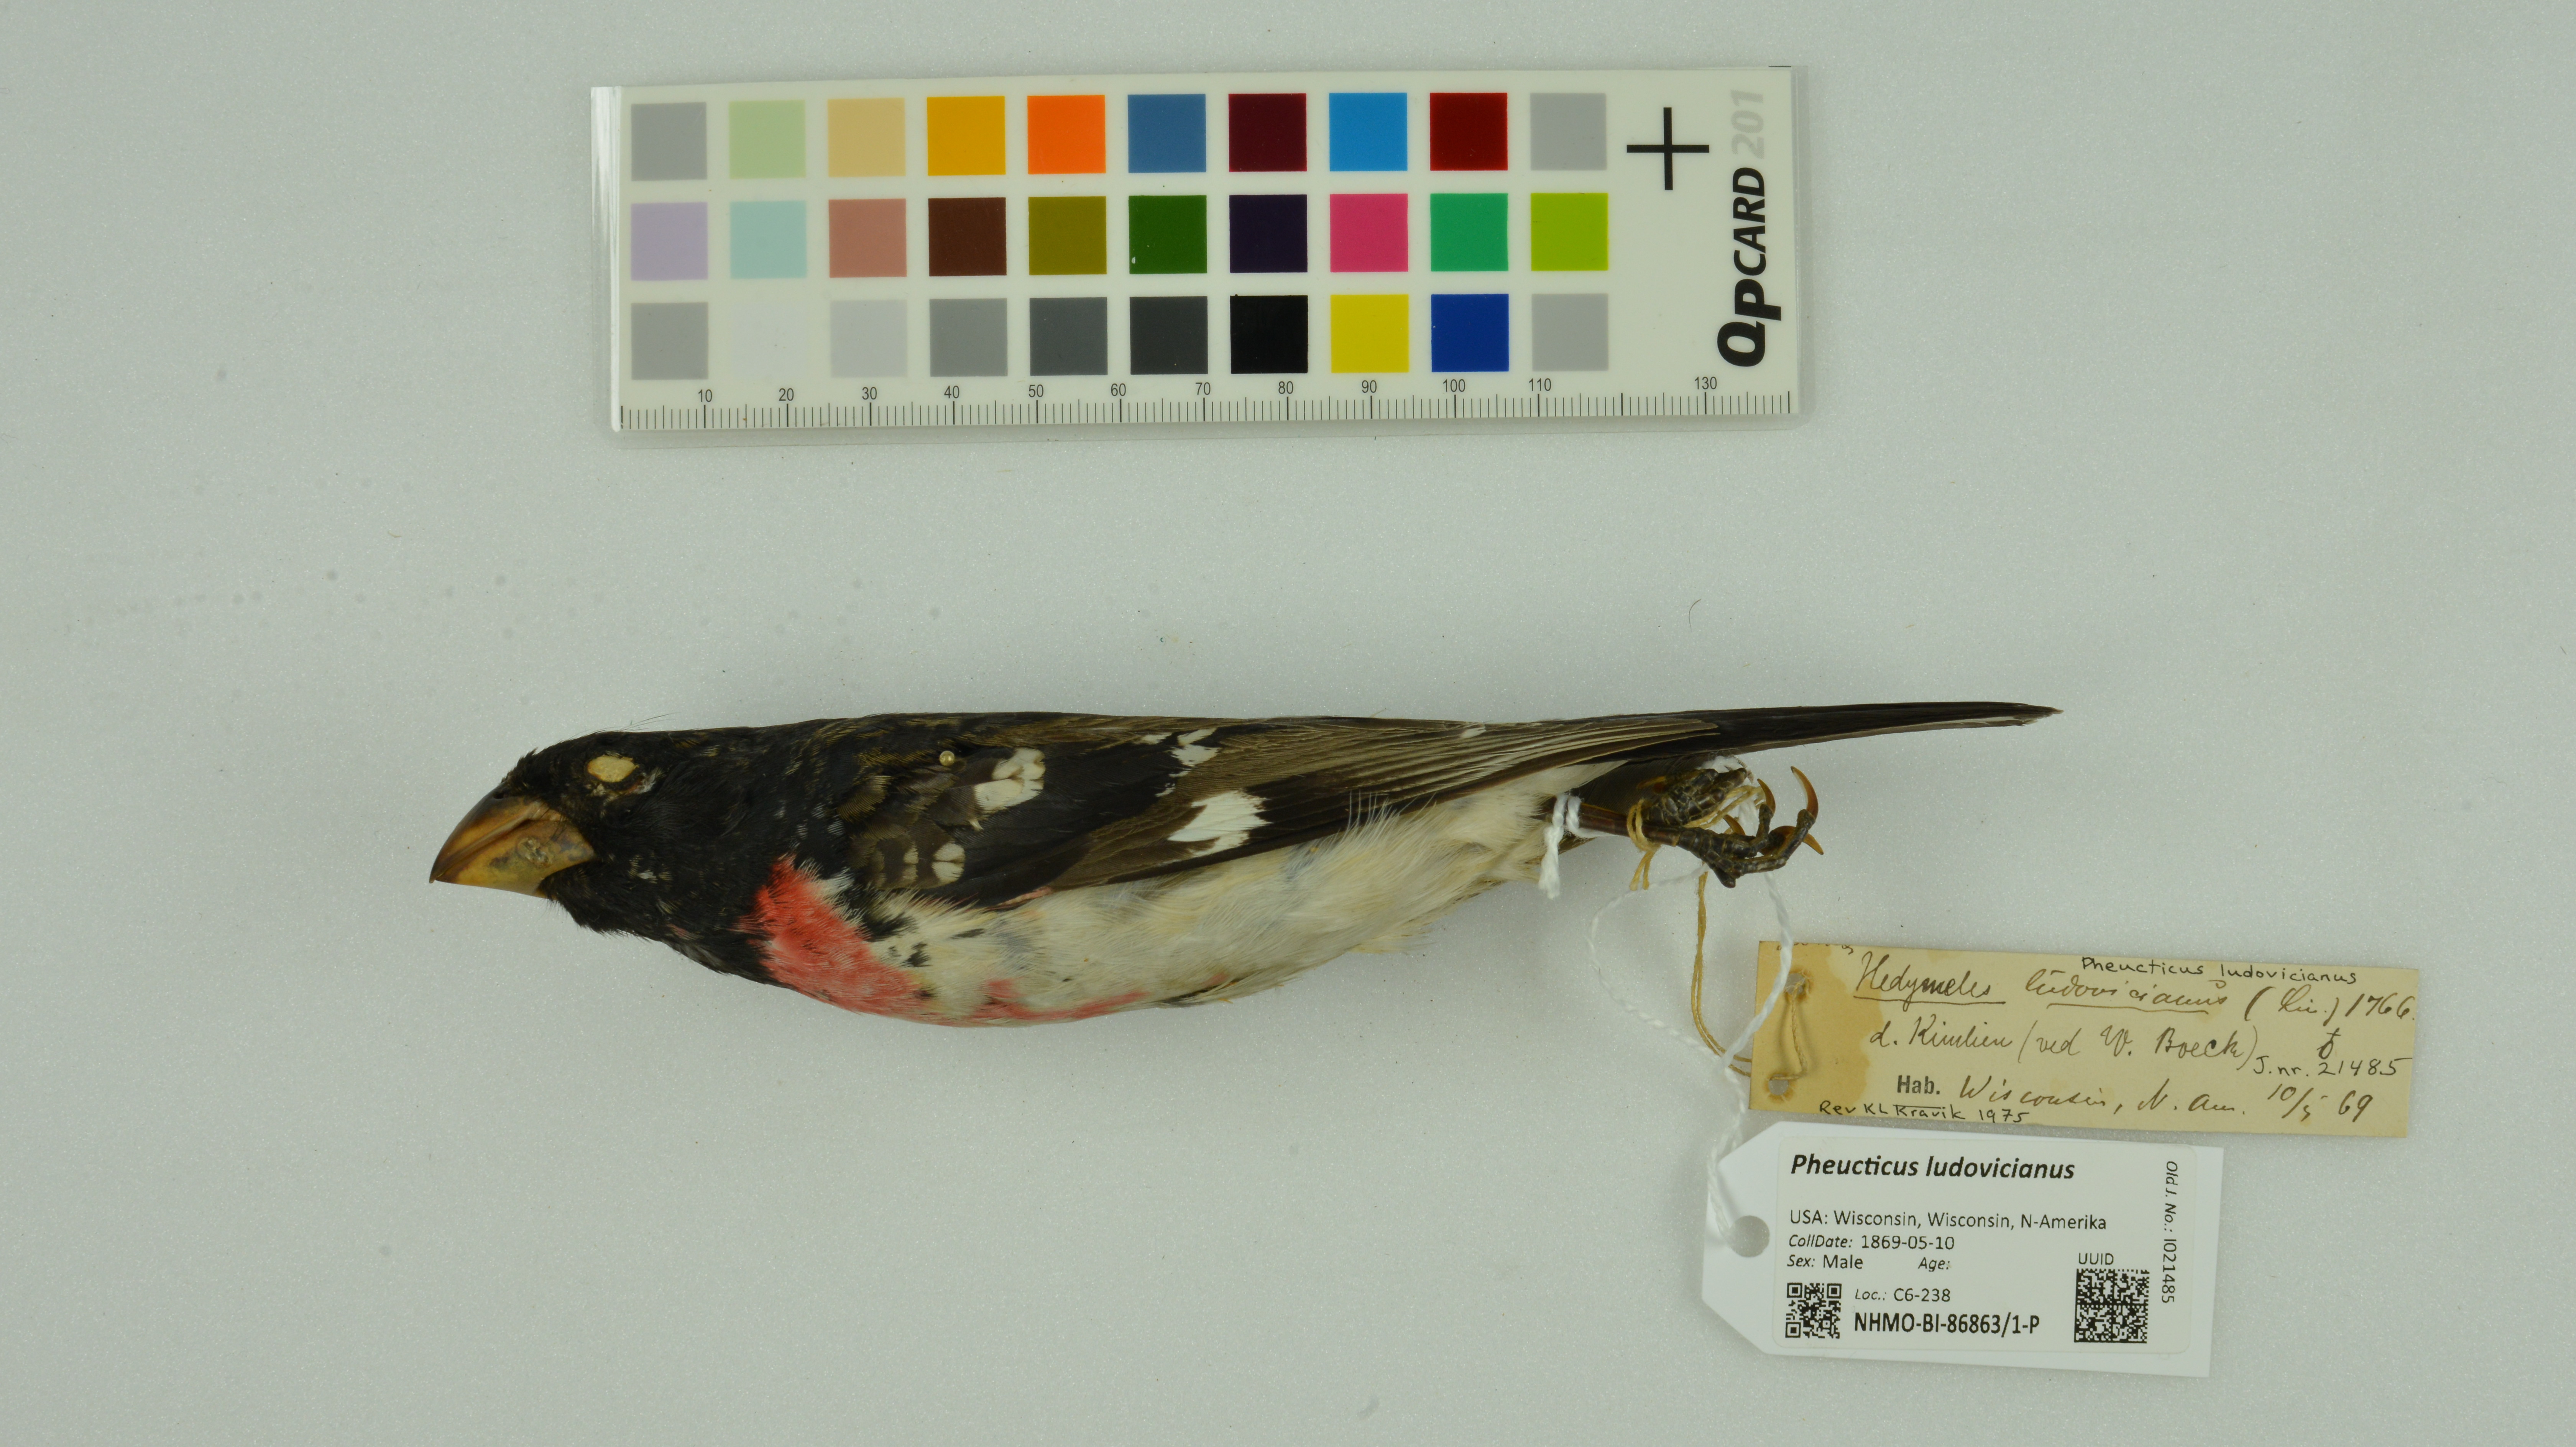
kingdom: Animalia
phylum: Chordata
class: Aves
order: Passeriformes
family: Cardinalidae
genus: Pheucticus
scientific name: Pheucticus ludovicianus
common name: Rose-breasted grosbeak
